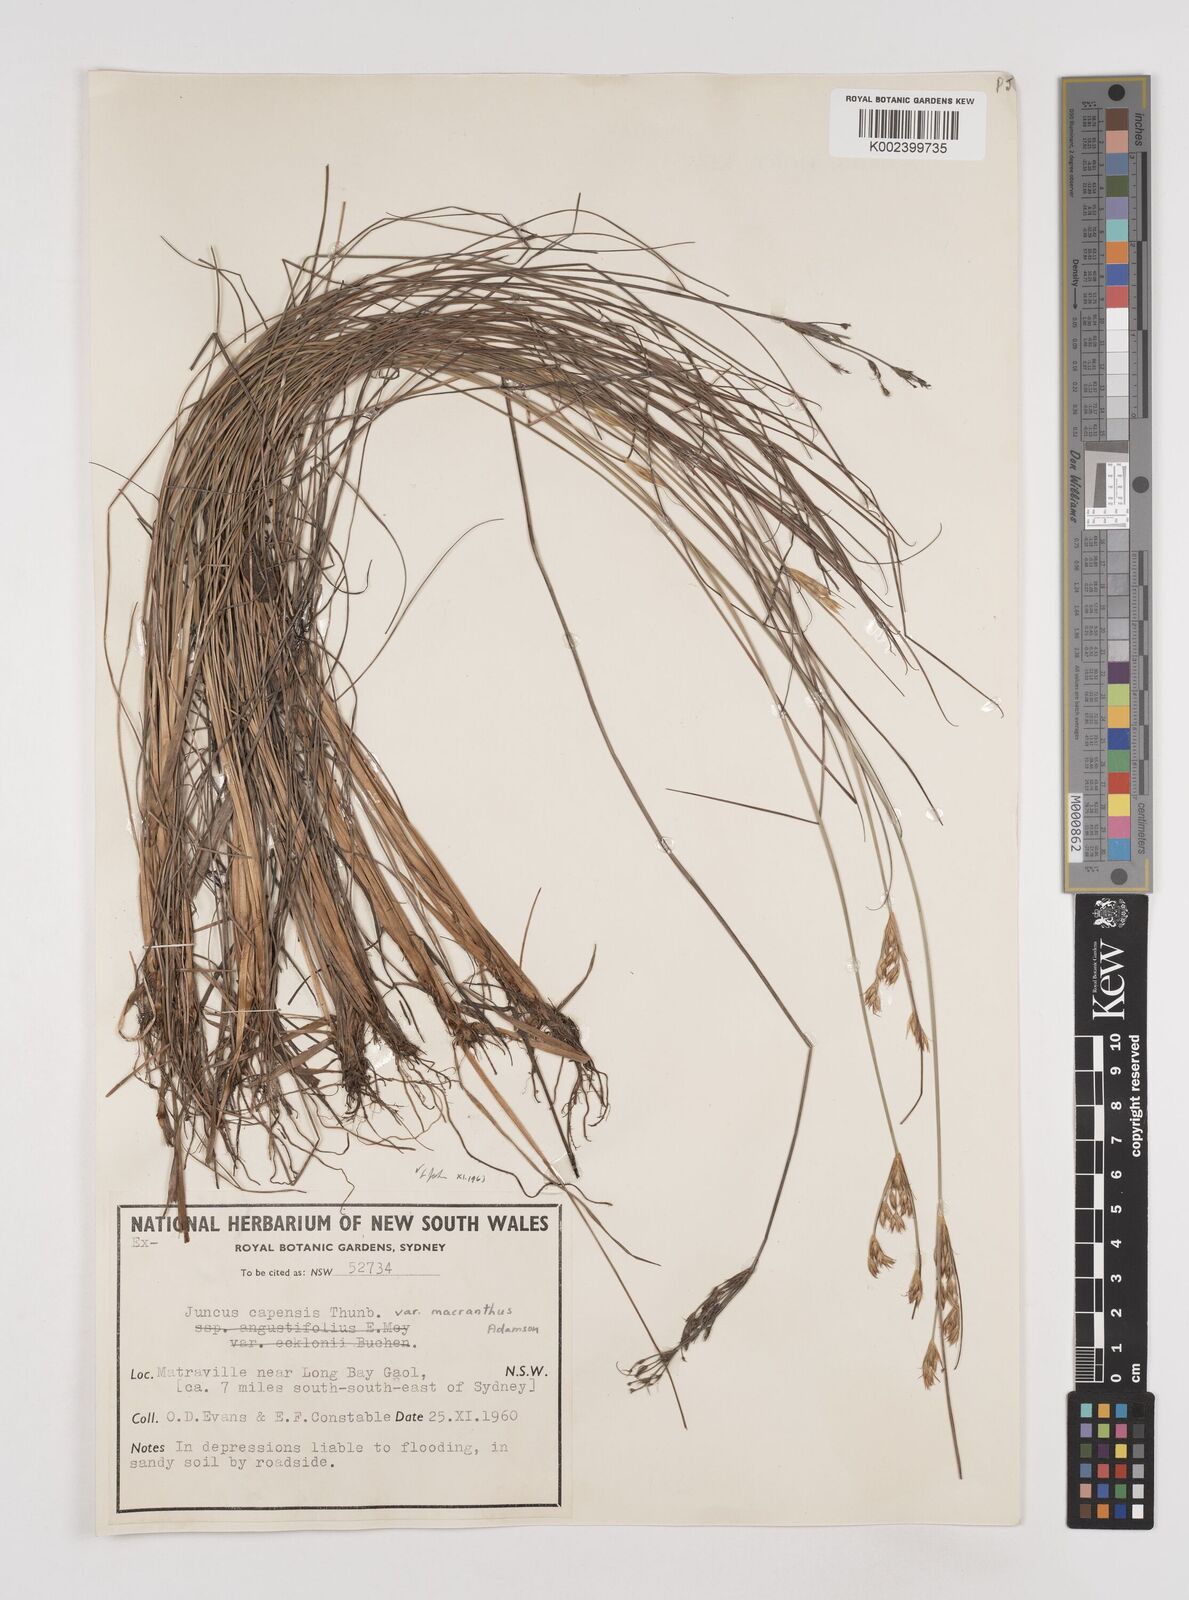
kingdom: Plantae
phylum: Tracheophyta
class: Liliopsida
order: Poales
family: Juncaceae
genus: Juncus
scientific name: Juncus capensis
